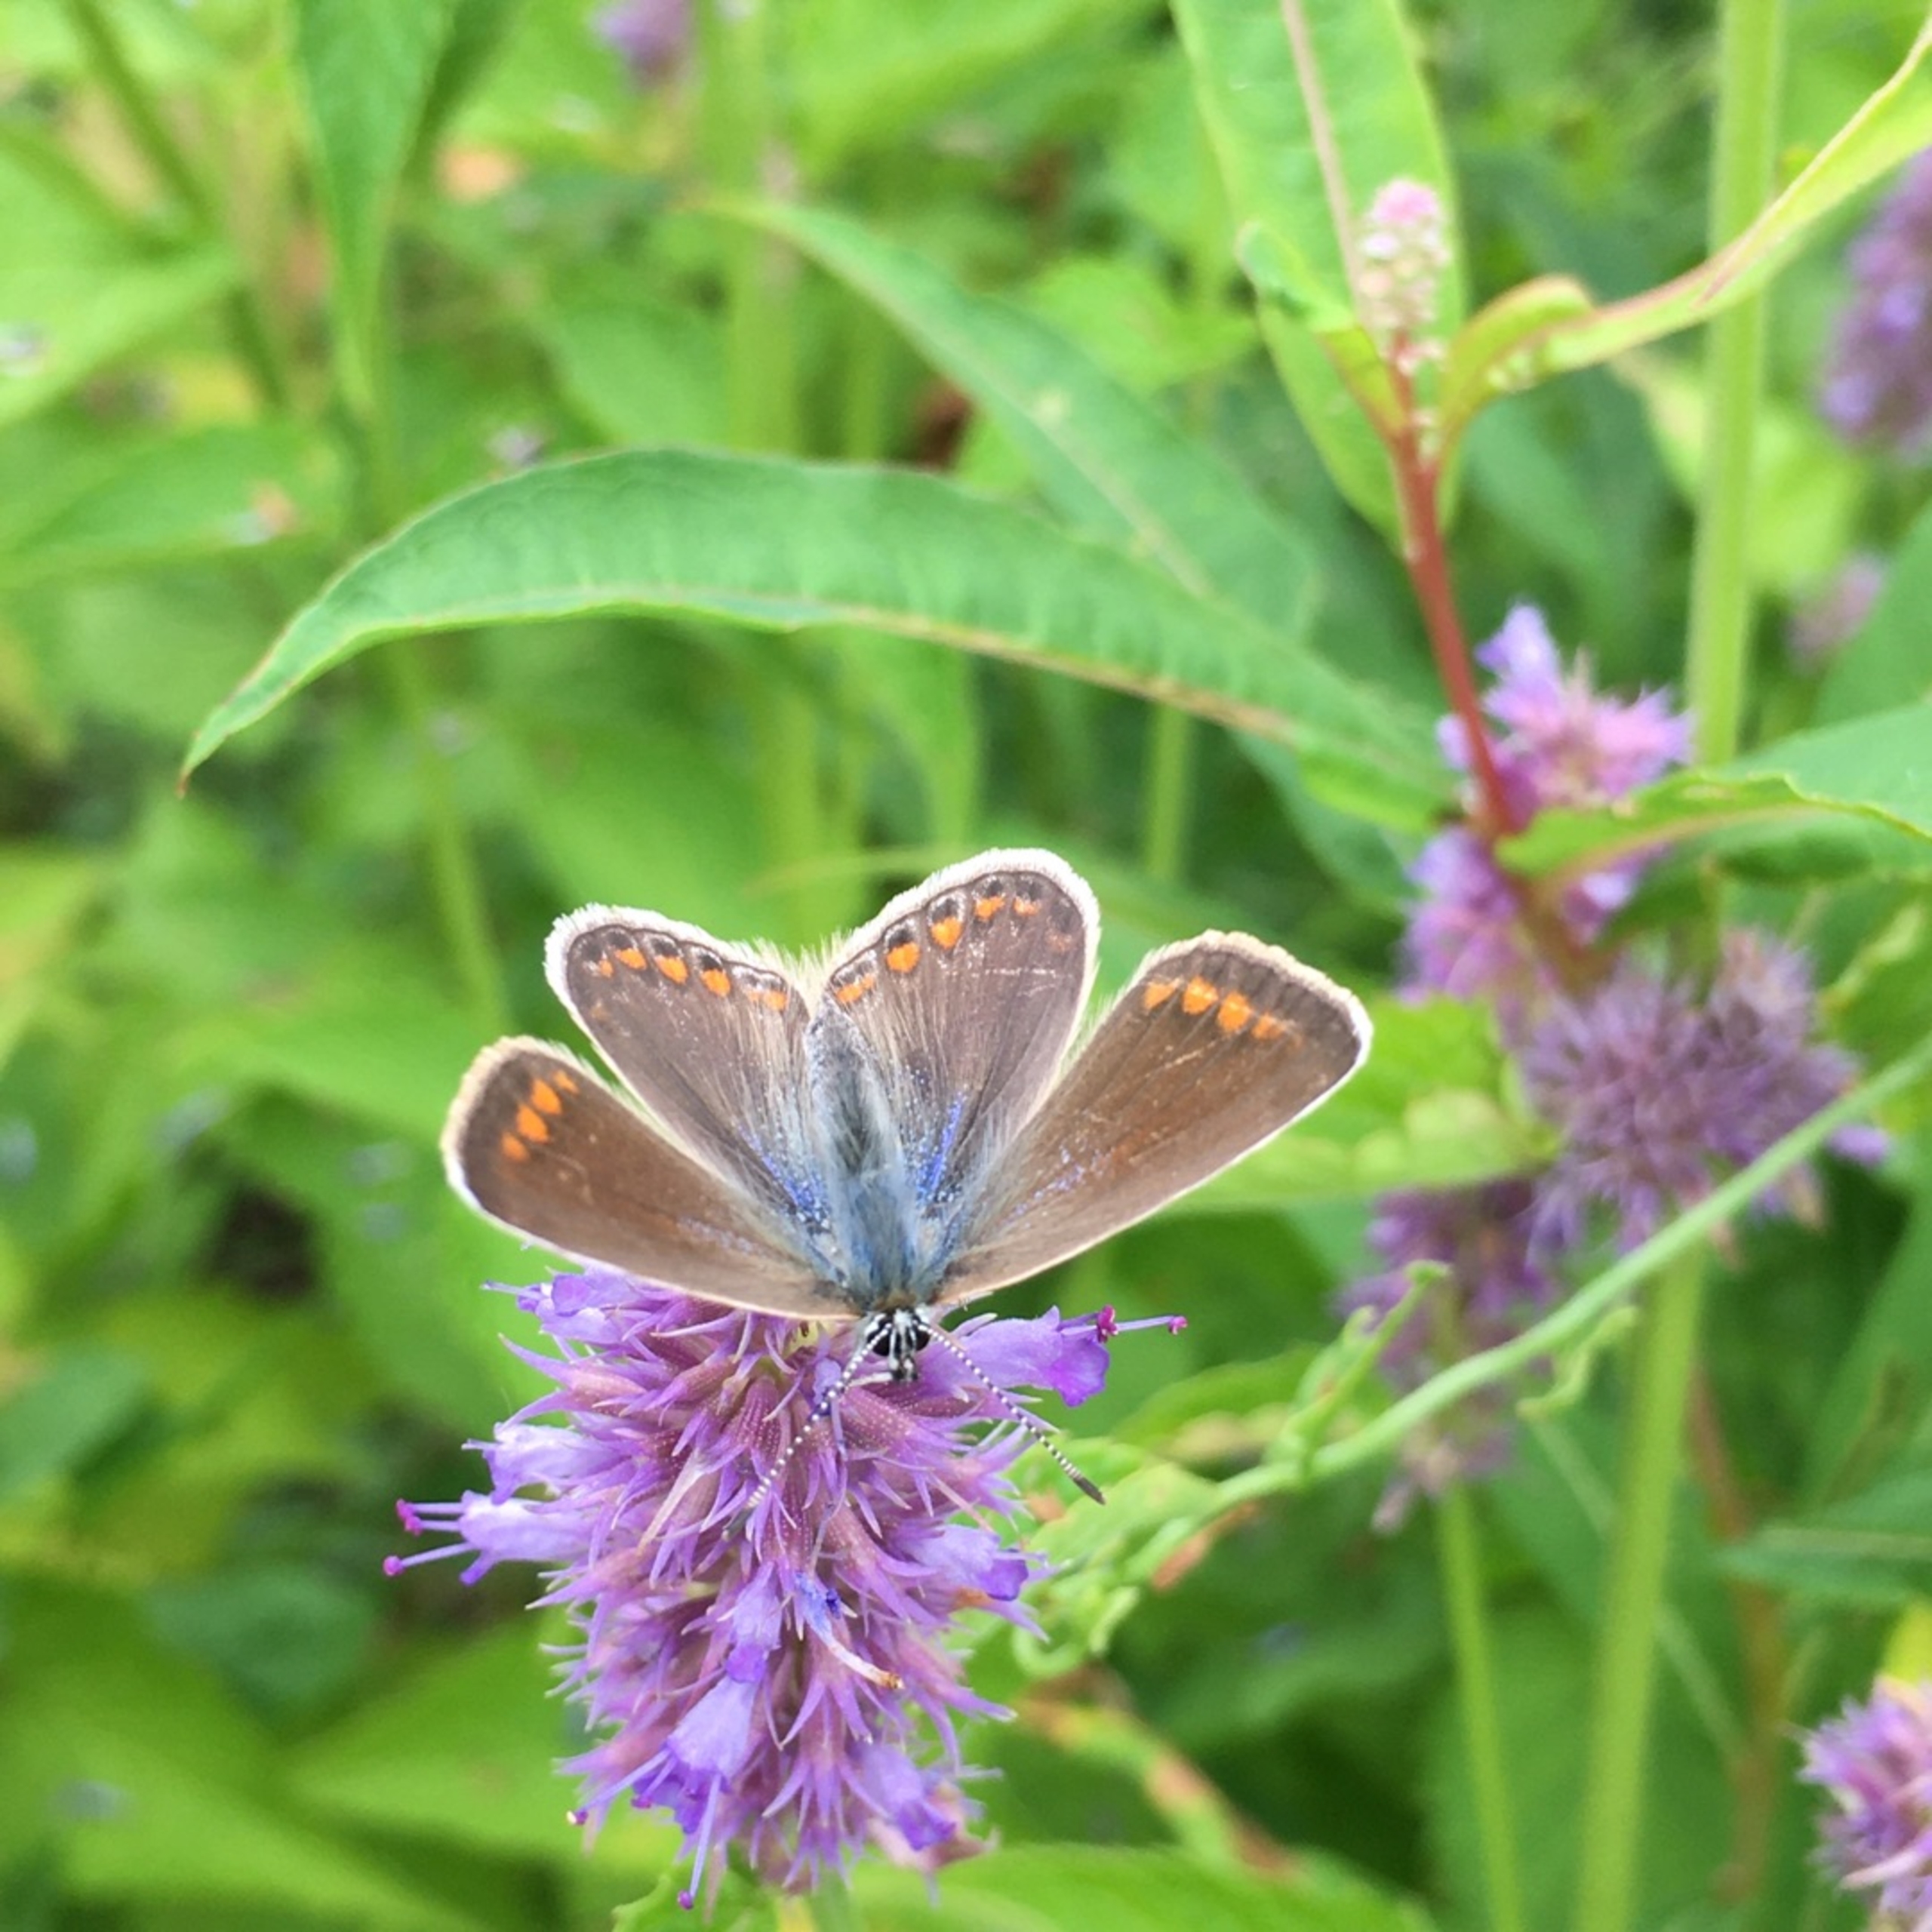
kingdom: Animalia
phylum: Arthropoda
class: Insecta
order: Lepidoptera
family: Lycaenidae
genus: Polyommatus
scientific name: Polyommatus icarus
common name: Almindelig blåfugl
